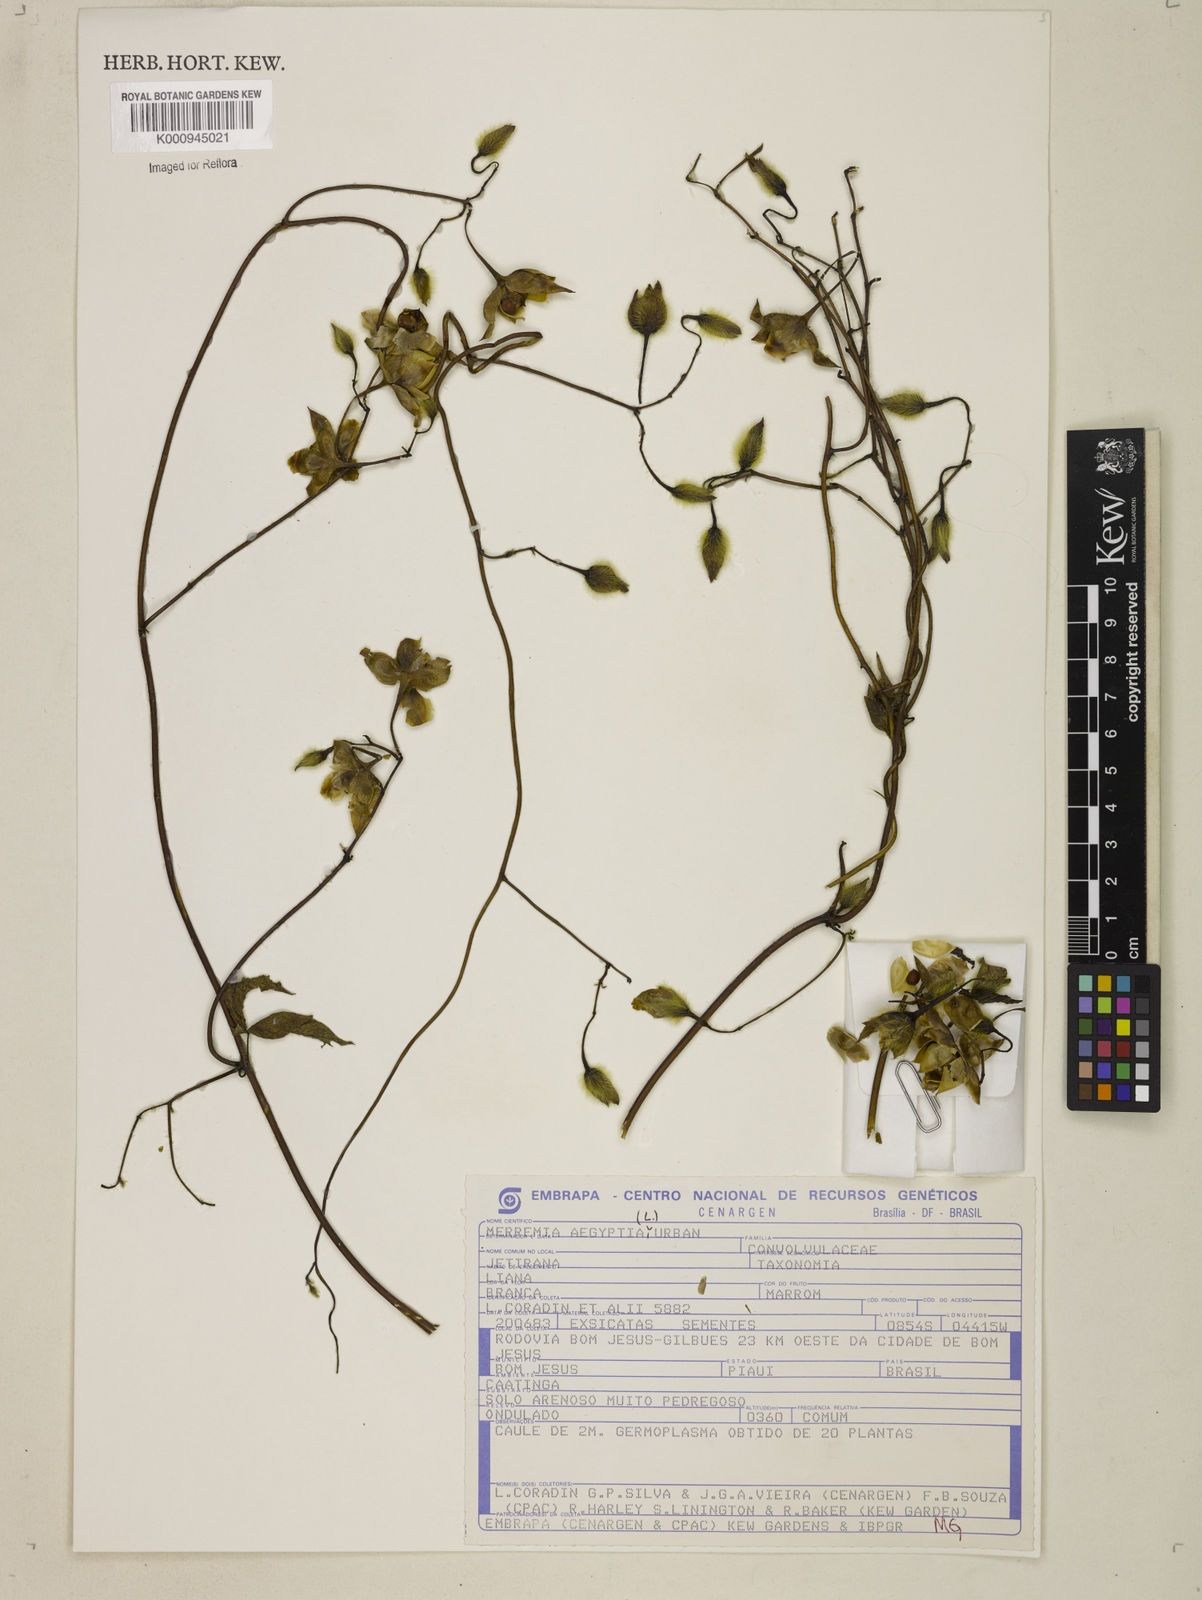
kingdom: Plantae
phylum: Tracheophyta
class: Magnoliopsida
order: Solanales
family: Convolvulaceae
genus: Distimake
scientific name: Distimake aegyptius
